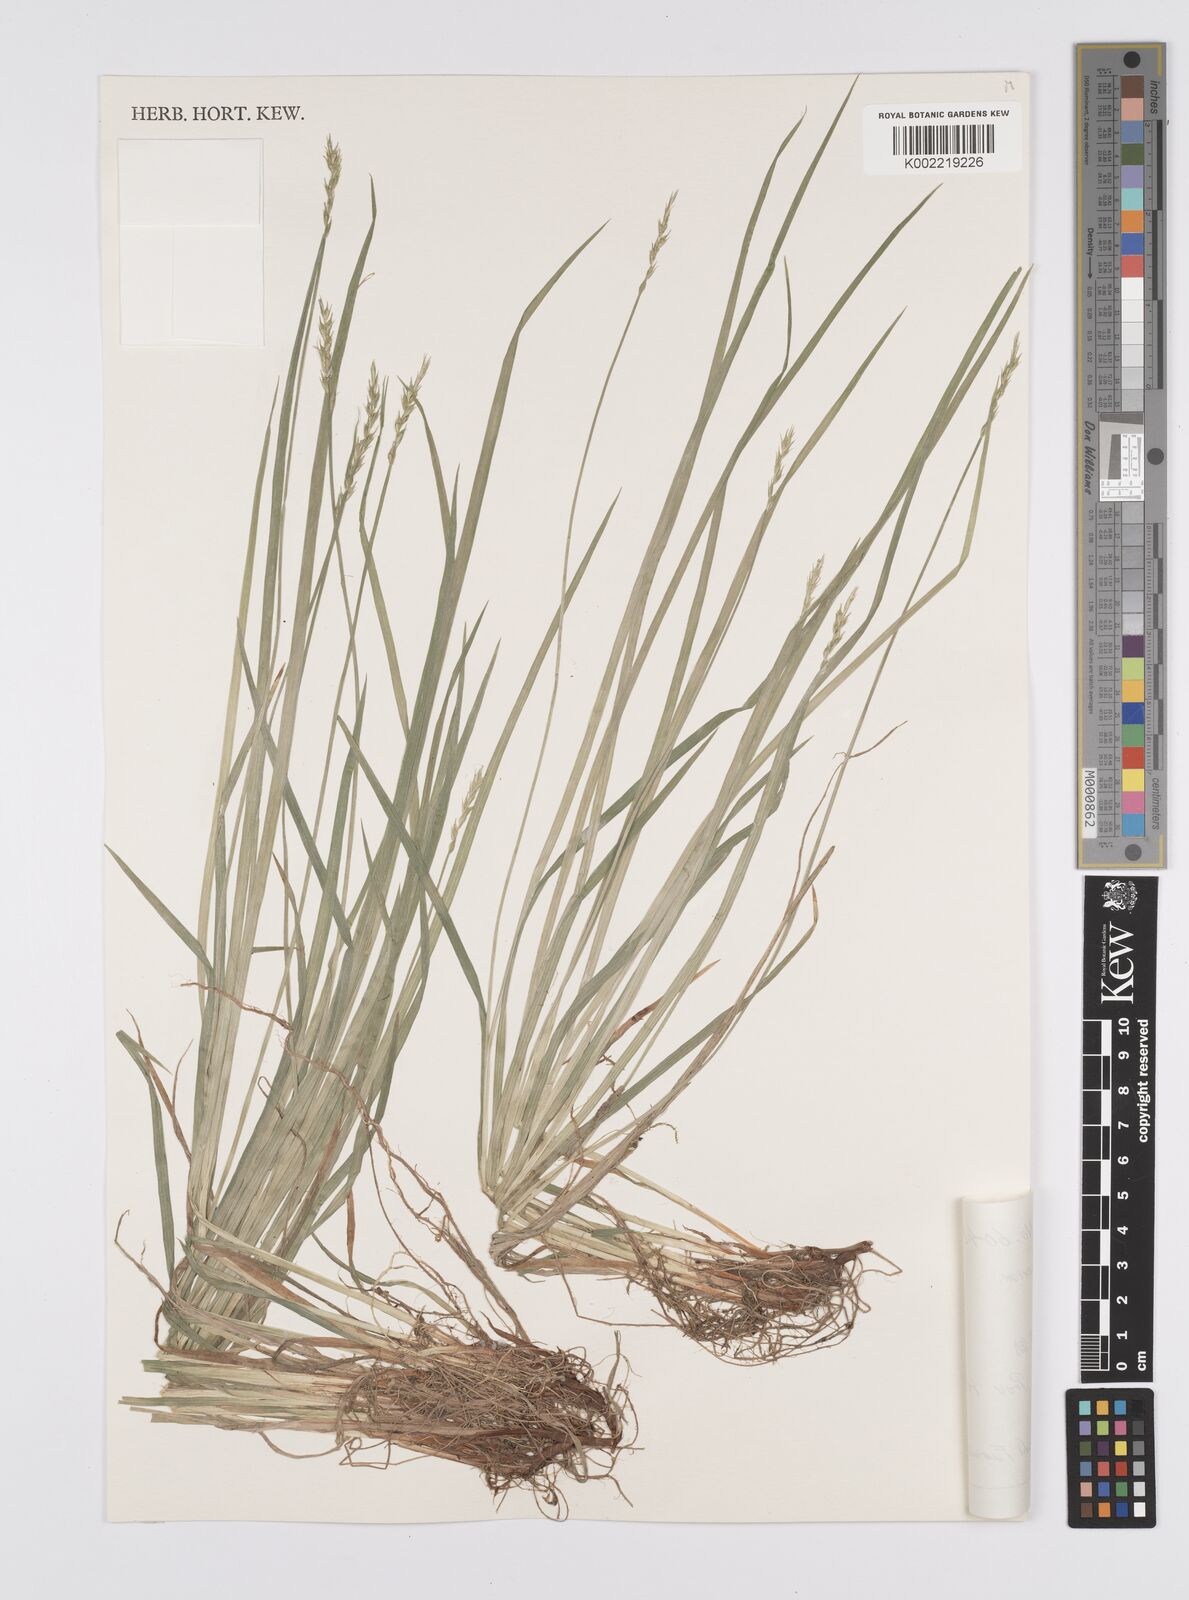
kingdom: Plantae
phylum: Tracheophyta
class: Liliopsida
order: Poales
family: Cyperaceae
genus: Carex
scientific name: Carex rhizopoda
